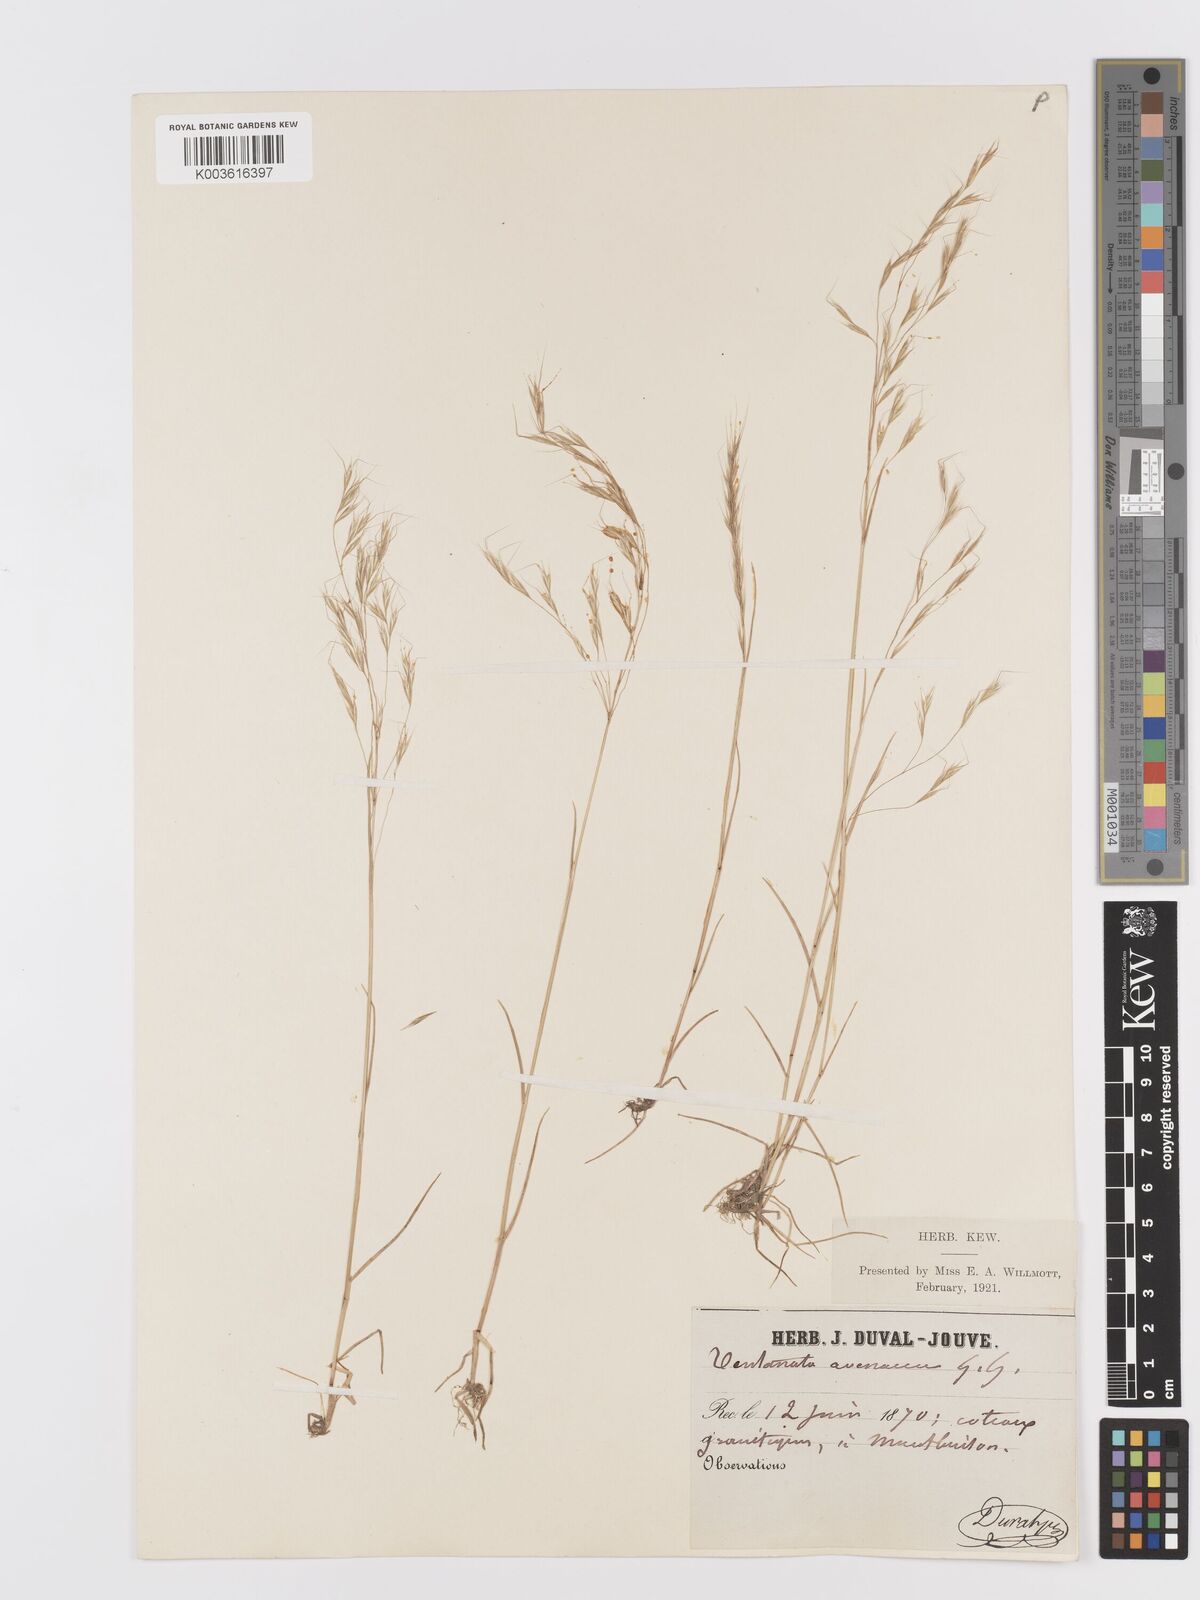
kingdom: Plantae
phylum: Tracheophyta
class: Liliopsida
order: Poales
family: Poaceae
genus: Ventenata
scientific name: Ventenata dubia
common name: North africa grass
